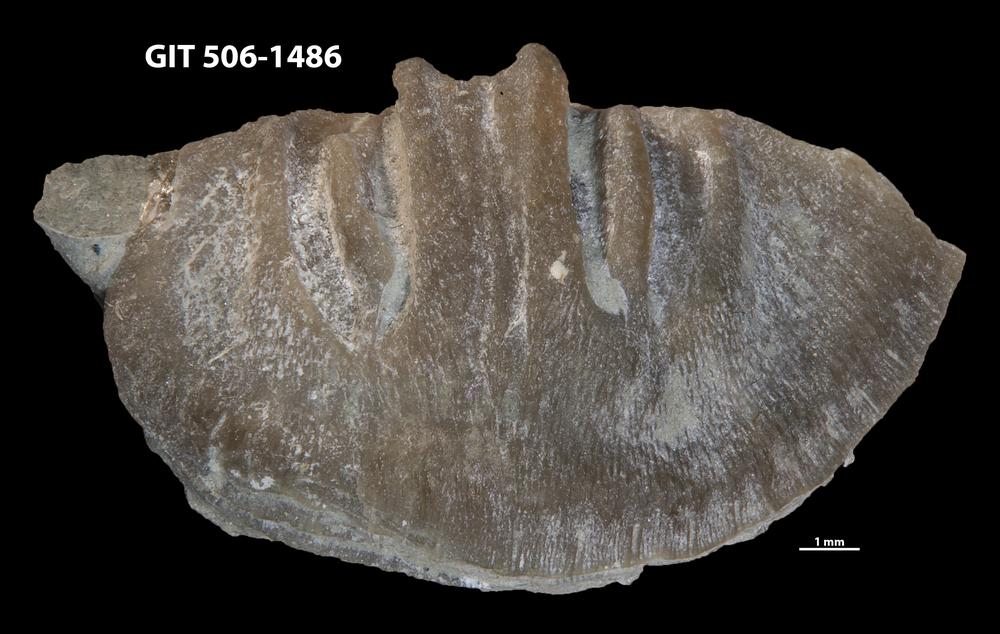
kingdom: Animalia
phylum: Brachiopoda
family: Sowerbyellidae
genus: Ygerodiscus
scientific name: Ygerodiscus Eoplectodonta bella
